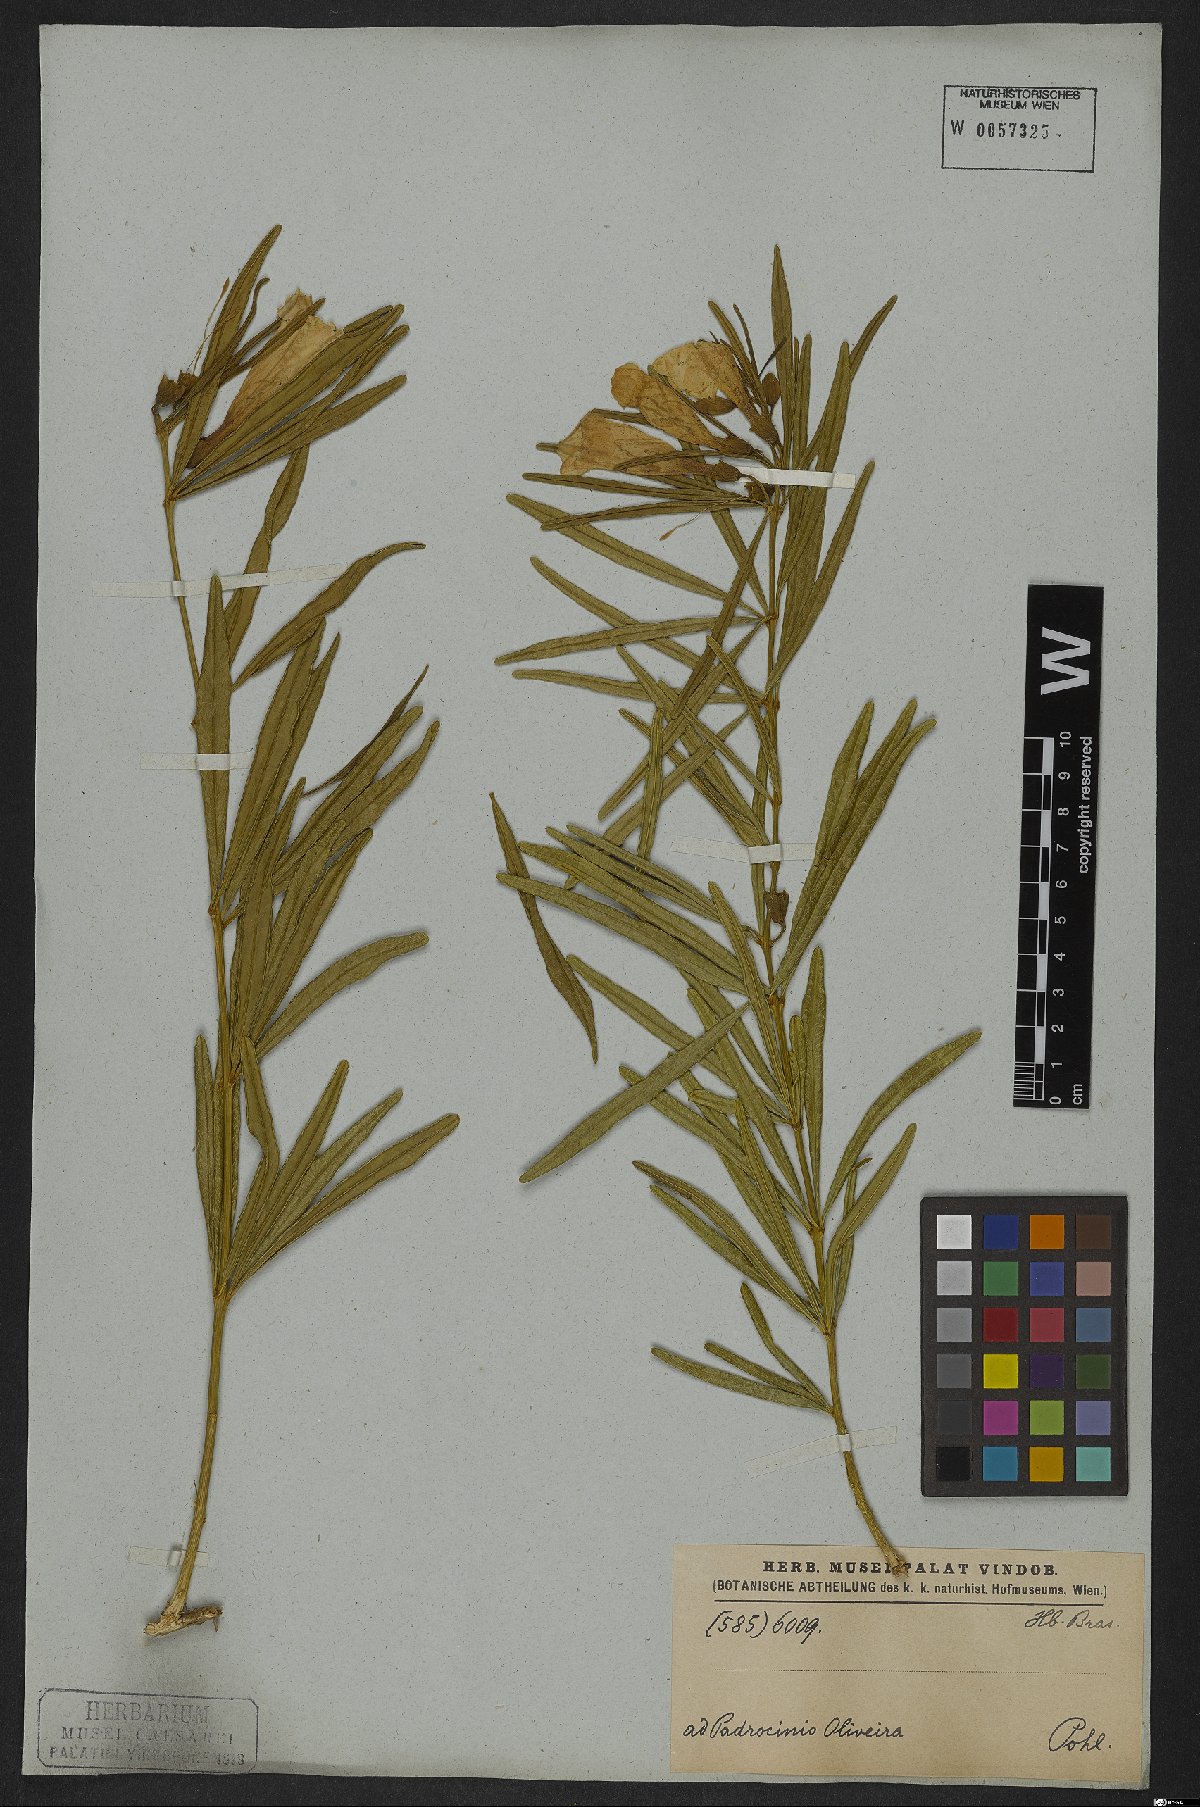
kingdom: Plantae
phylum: Tracheophyta
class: Magnoliopsida
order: Lamiales
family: Bignoniaceae
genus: Anemopaegma
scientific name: Anemopaegma arvense
